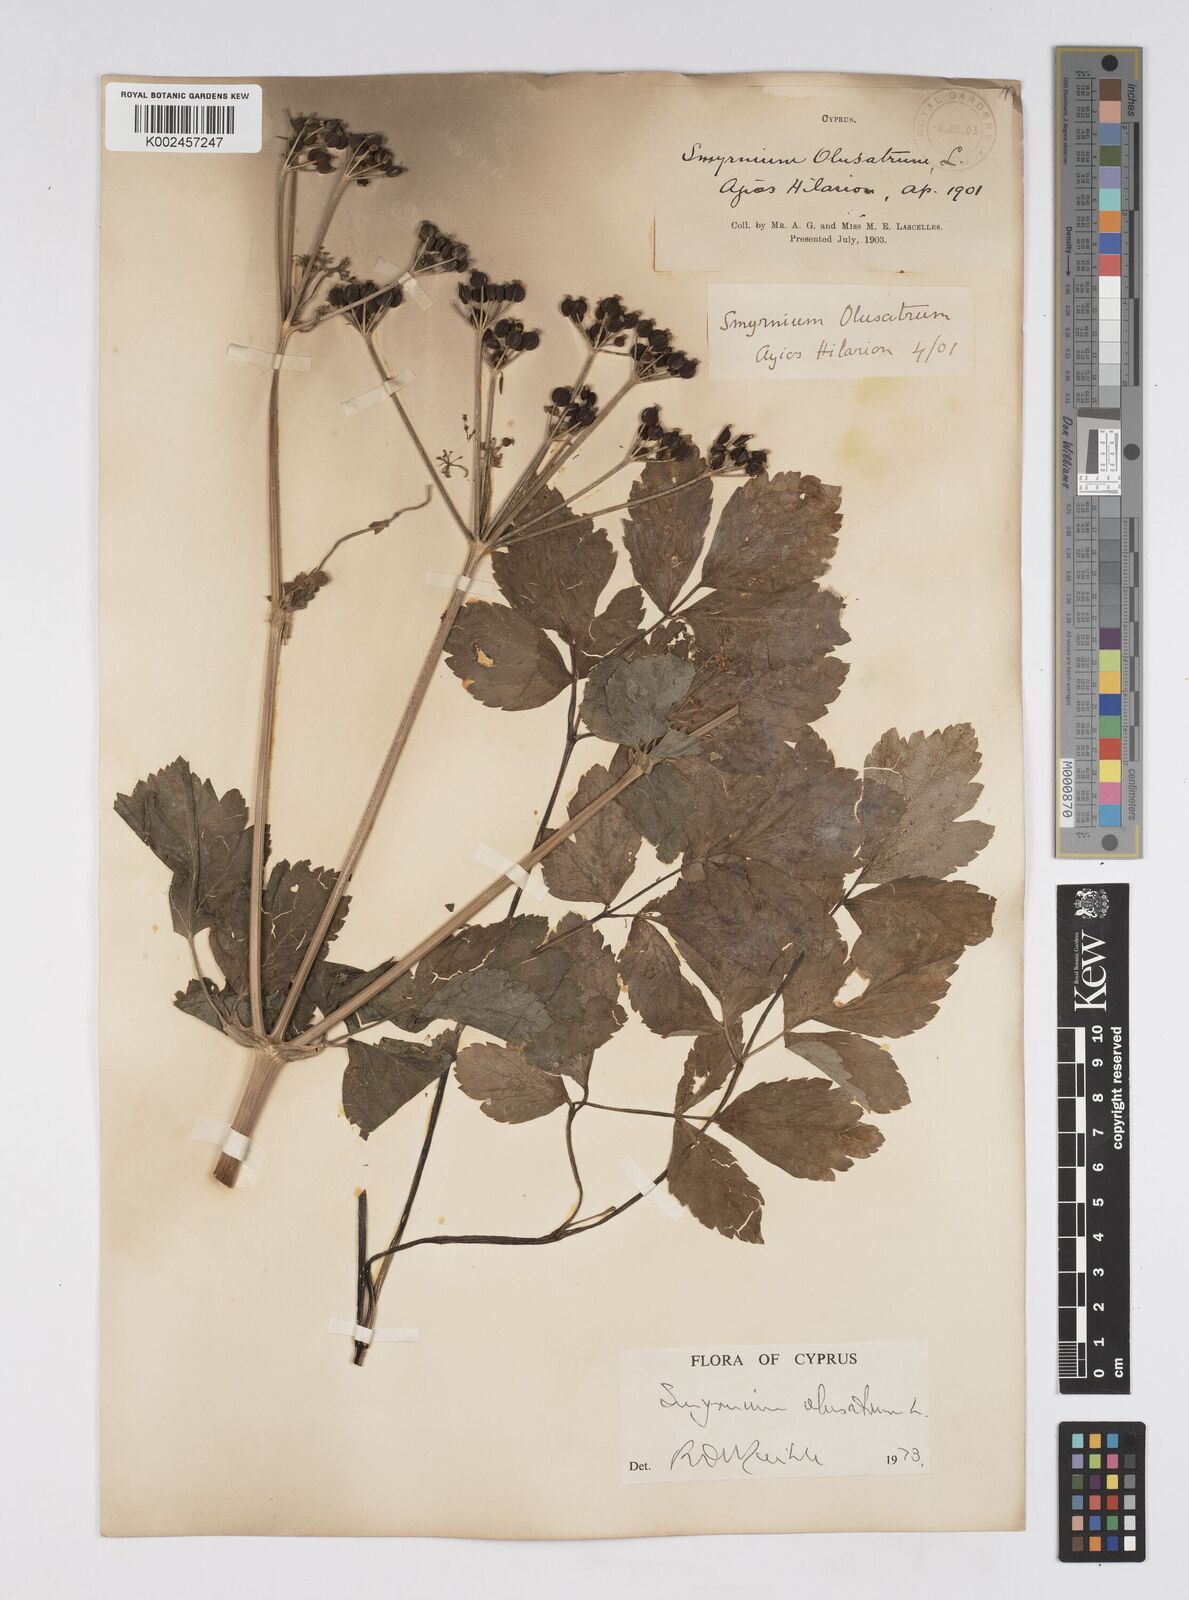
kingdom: Plantae
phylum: Tracheophyta
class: Magnoliopsida
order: Apiales
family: Apiaceae
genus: Smyrnium
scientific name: Smyrnium olusatrum
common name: Alexanders
